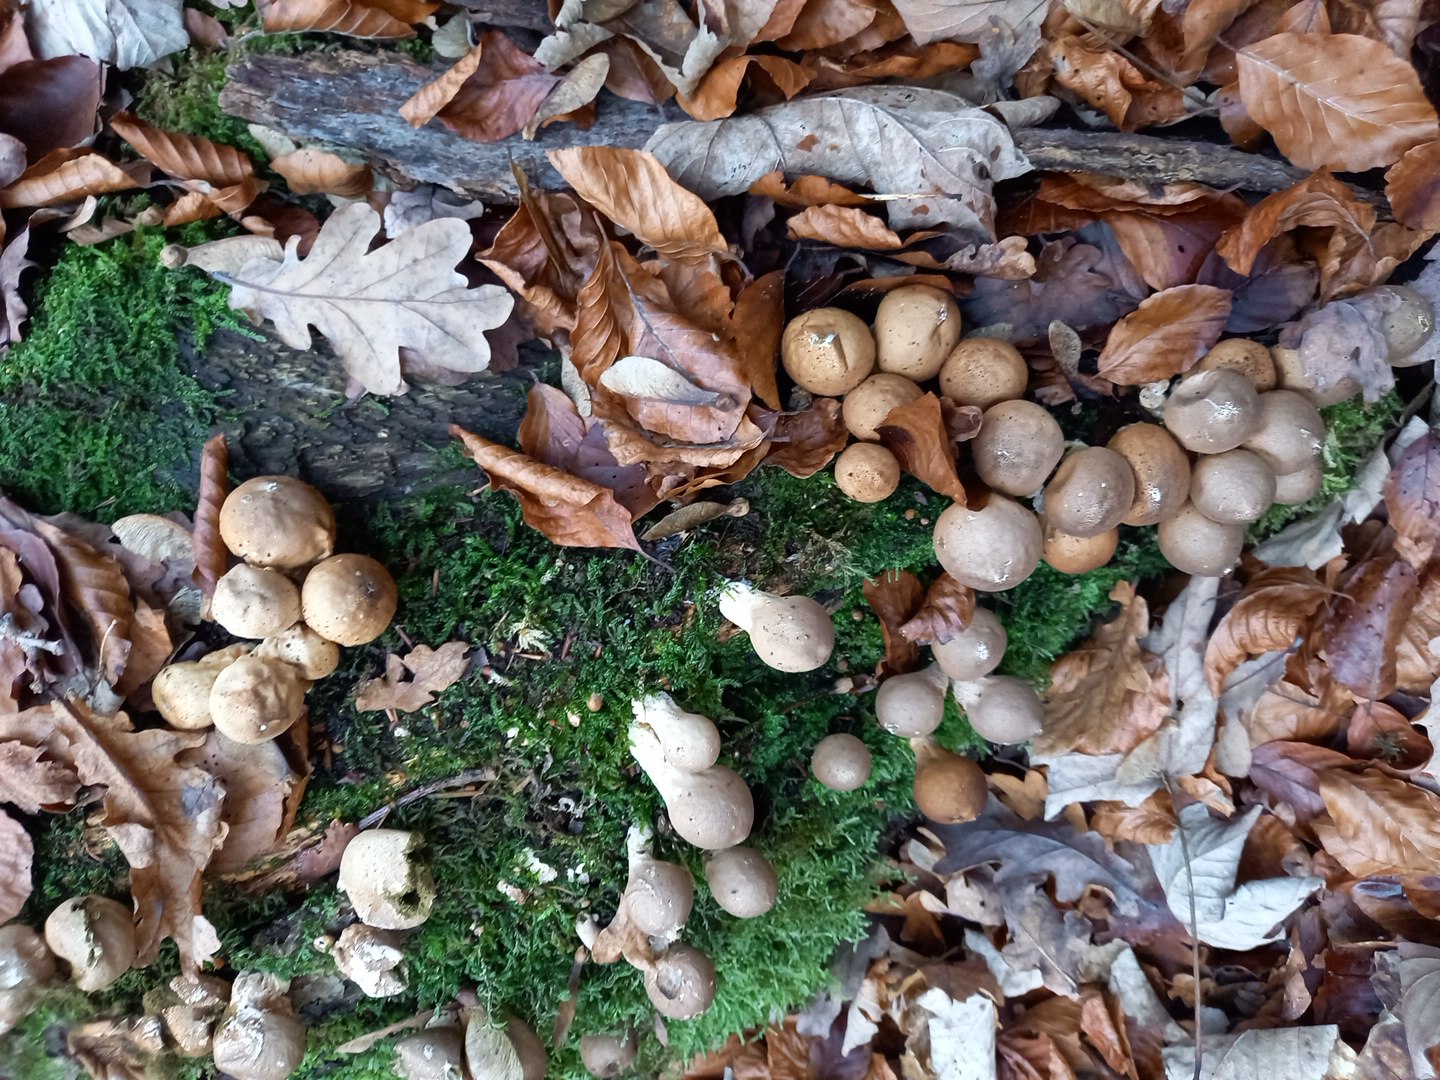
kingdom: Fungi
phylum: Basidiomycota
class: Agaricomycetes
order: Agaricales
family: Lycoperdaceae
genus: Apioperdon
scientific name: Apioperdon pyriforme
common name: pære-støvbold
